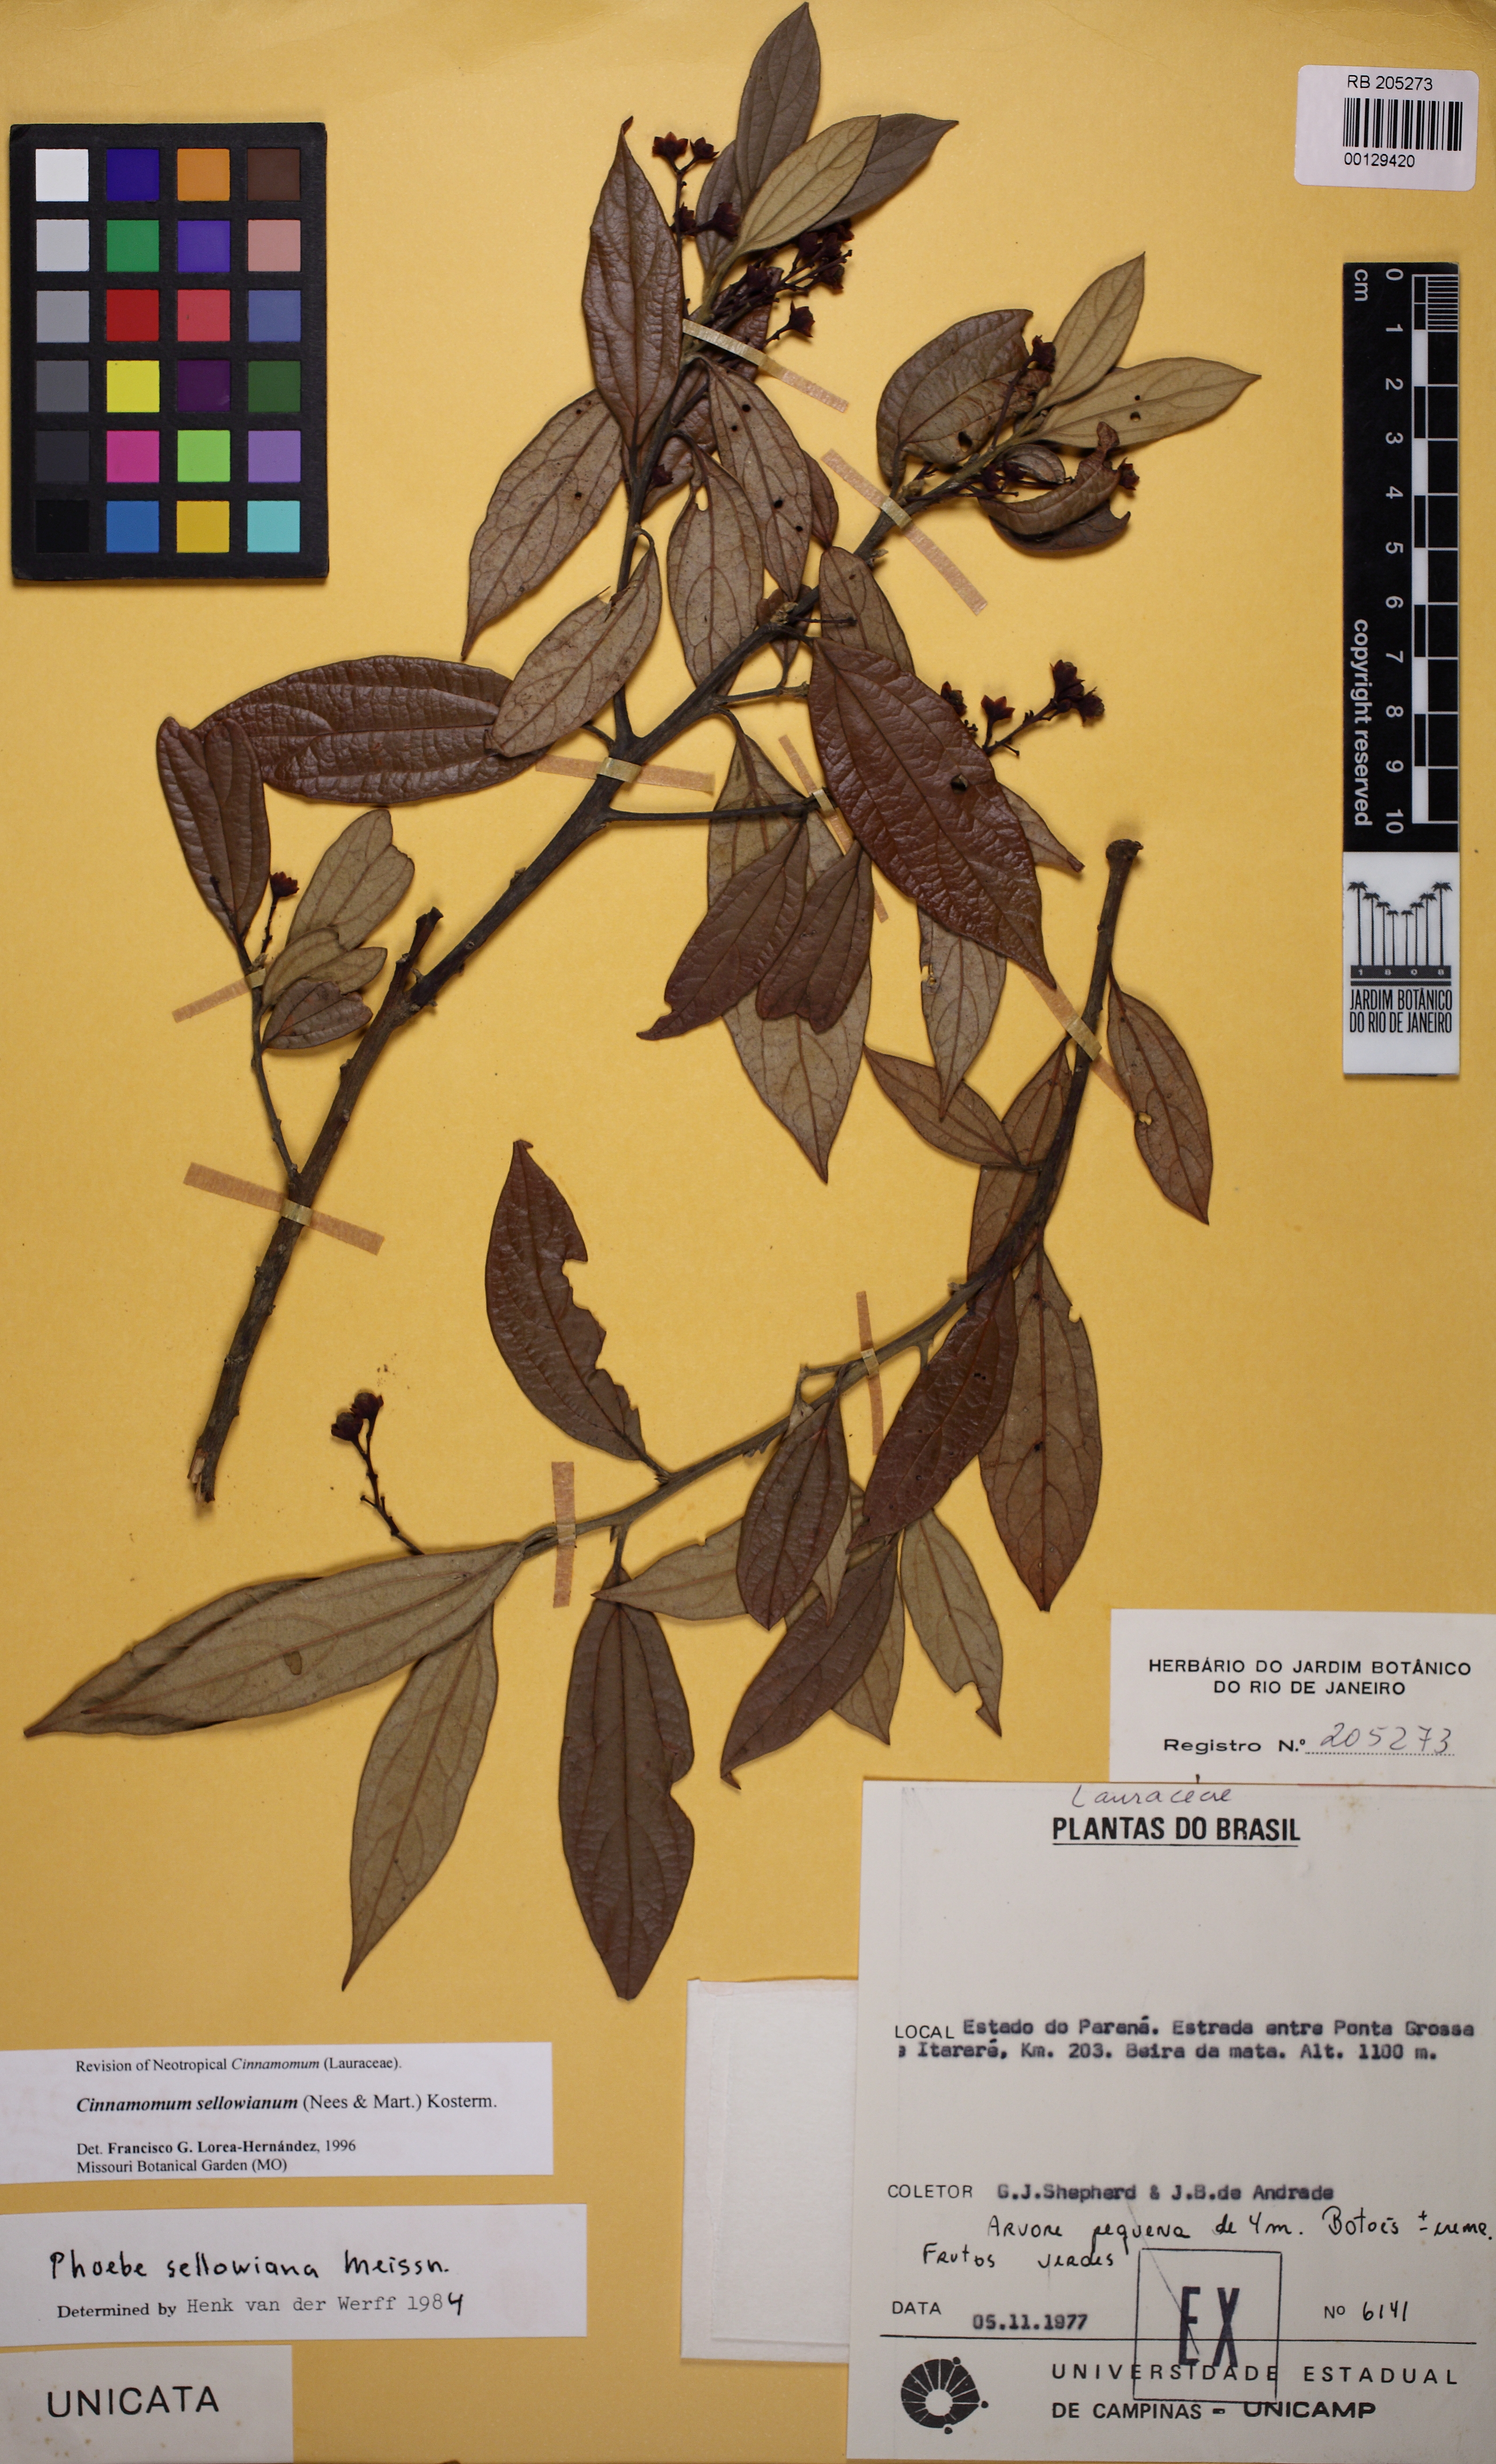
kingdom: Plantae
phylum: Tracheophyta
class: Magnoliopsida
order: Laurales
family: Lauraceae
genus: Aiouea
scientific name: Aiouea sellowiana
